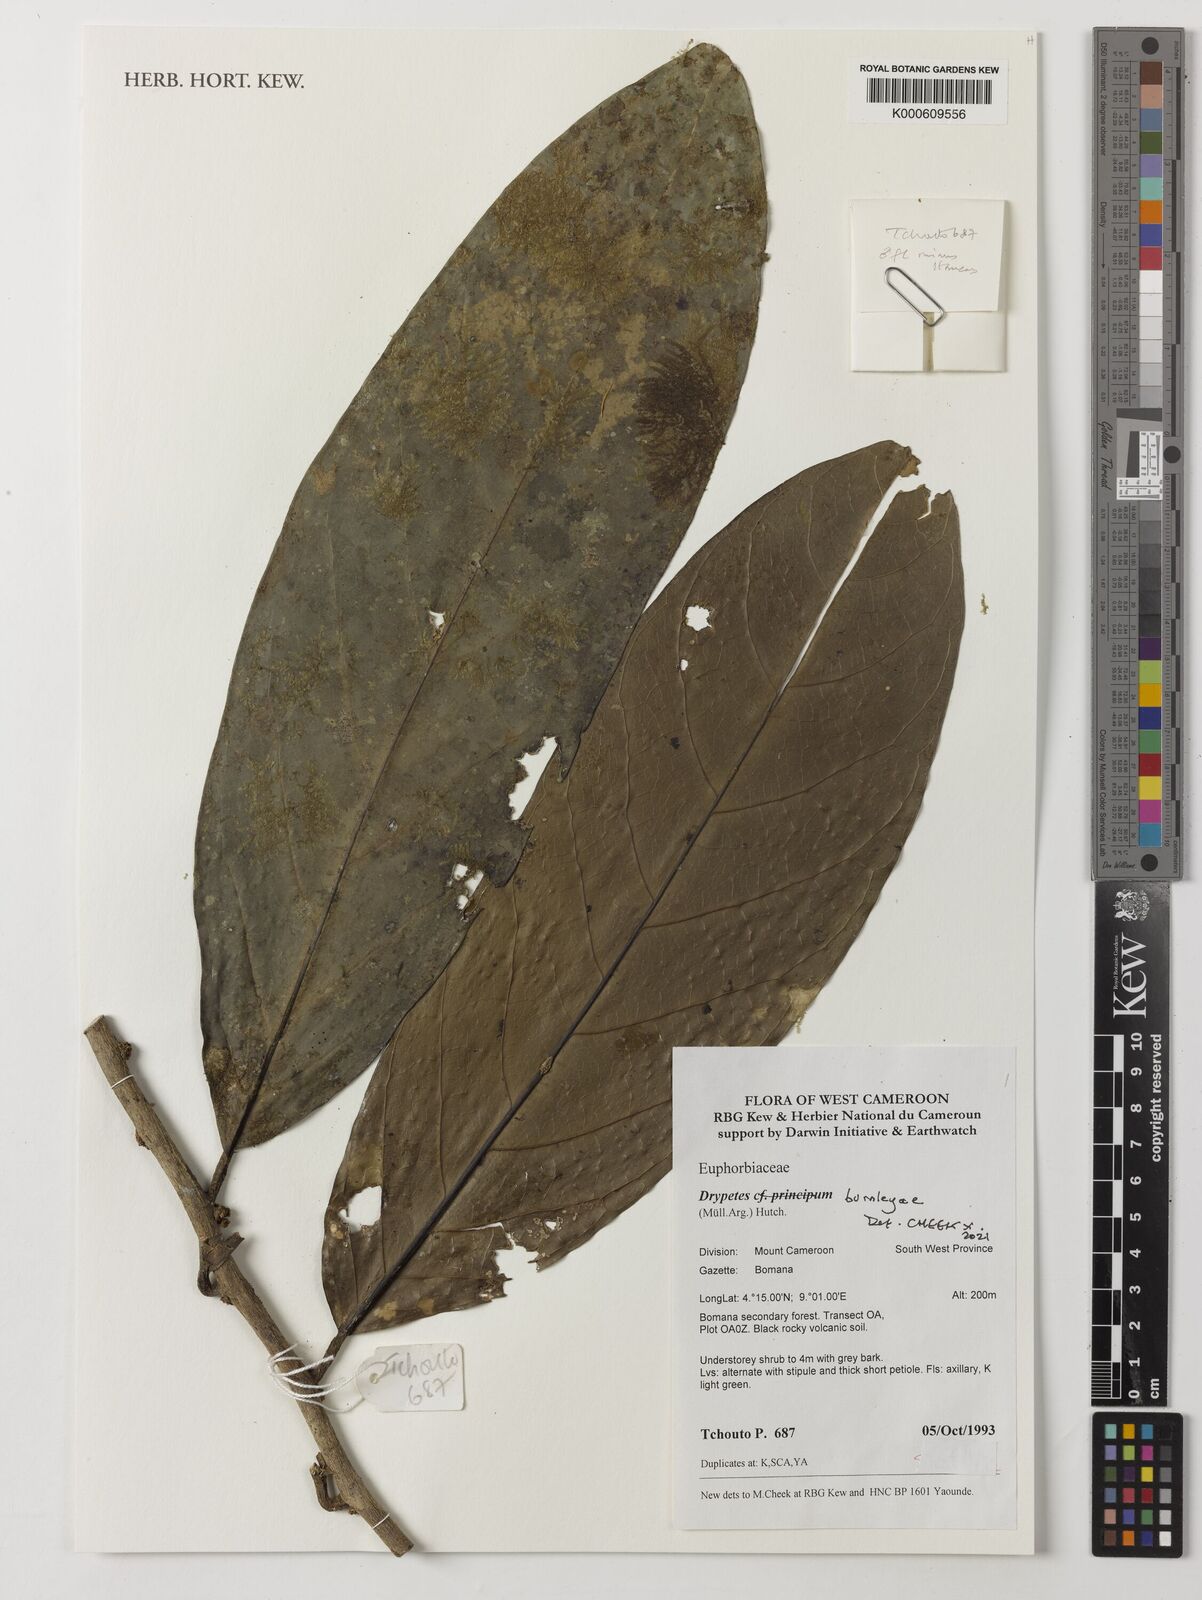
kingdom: Plantae
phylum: Tracheophyta
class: Magnoliopsida
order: Malpighiales
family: Putranjivaceae
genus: Drypetes
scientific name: Drypetes
